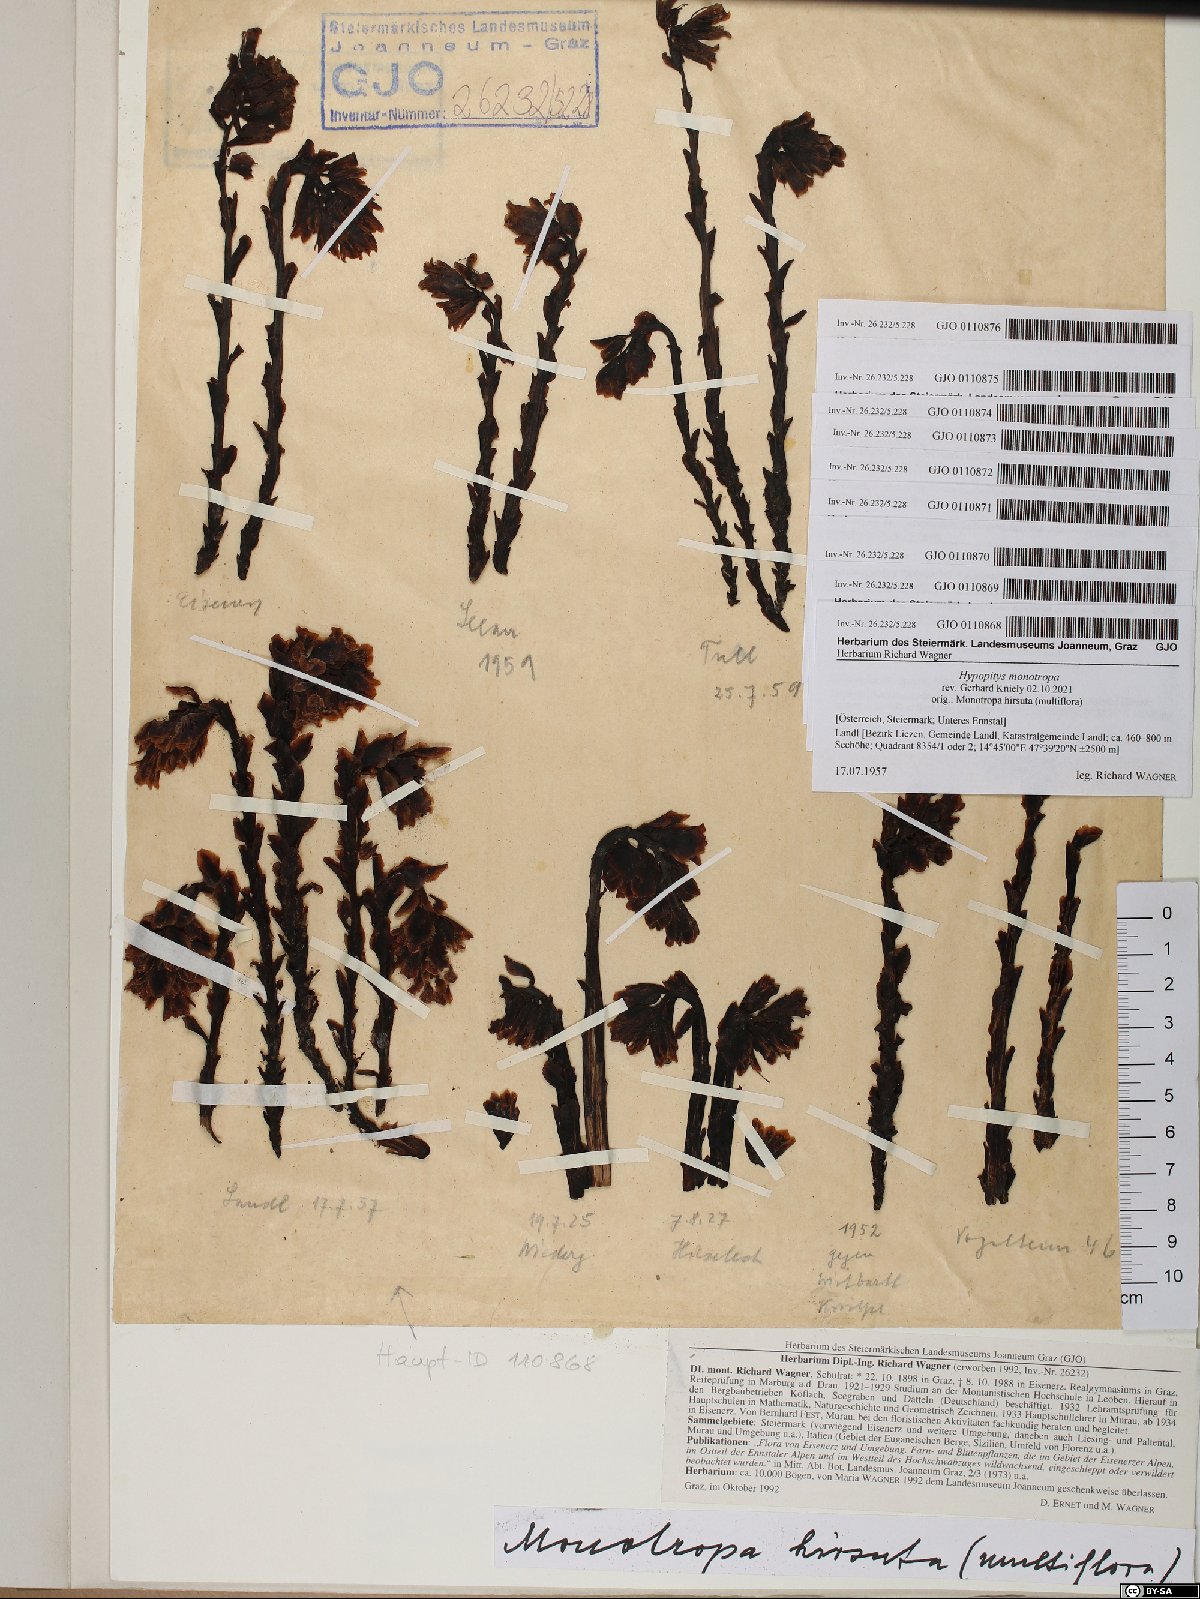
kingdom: Plantae
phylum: Tracheophyta
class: Magnoliopsida
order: Ericales
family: Ericaceae
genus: Hypopitys
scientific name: Hypopitys monotropa
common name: Yellow bird's-nest
